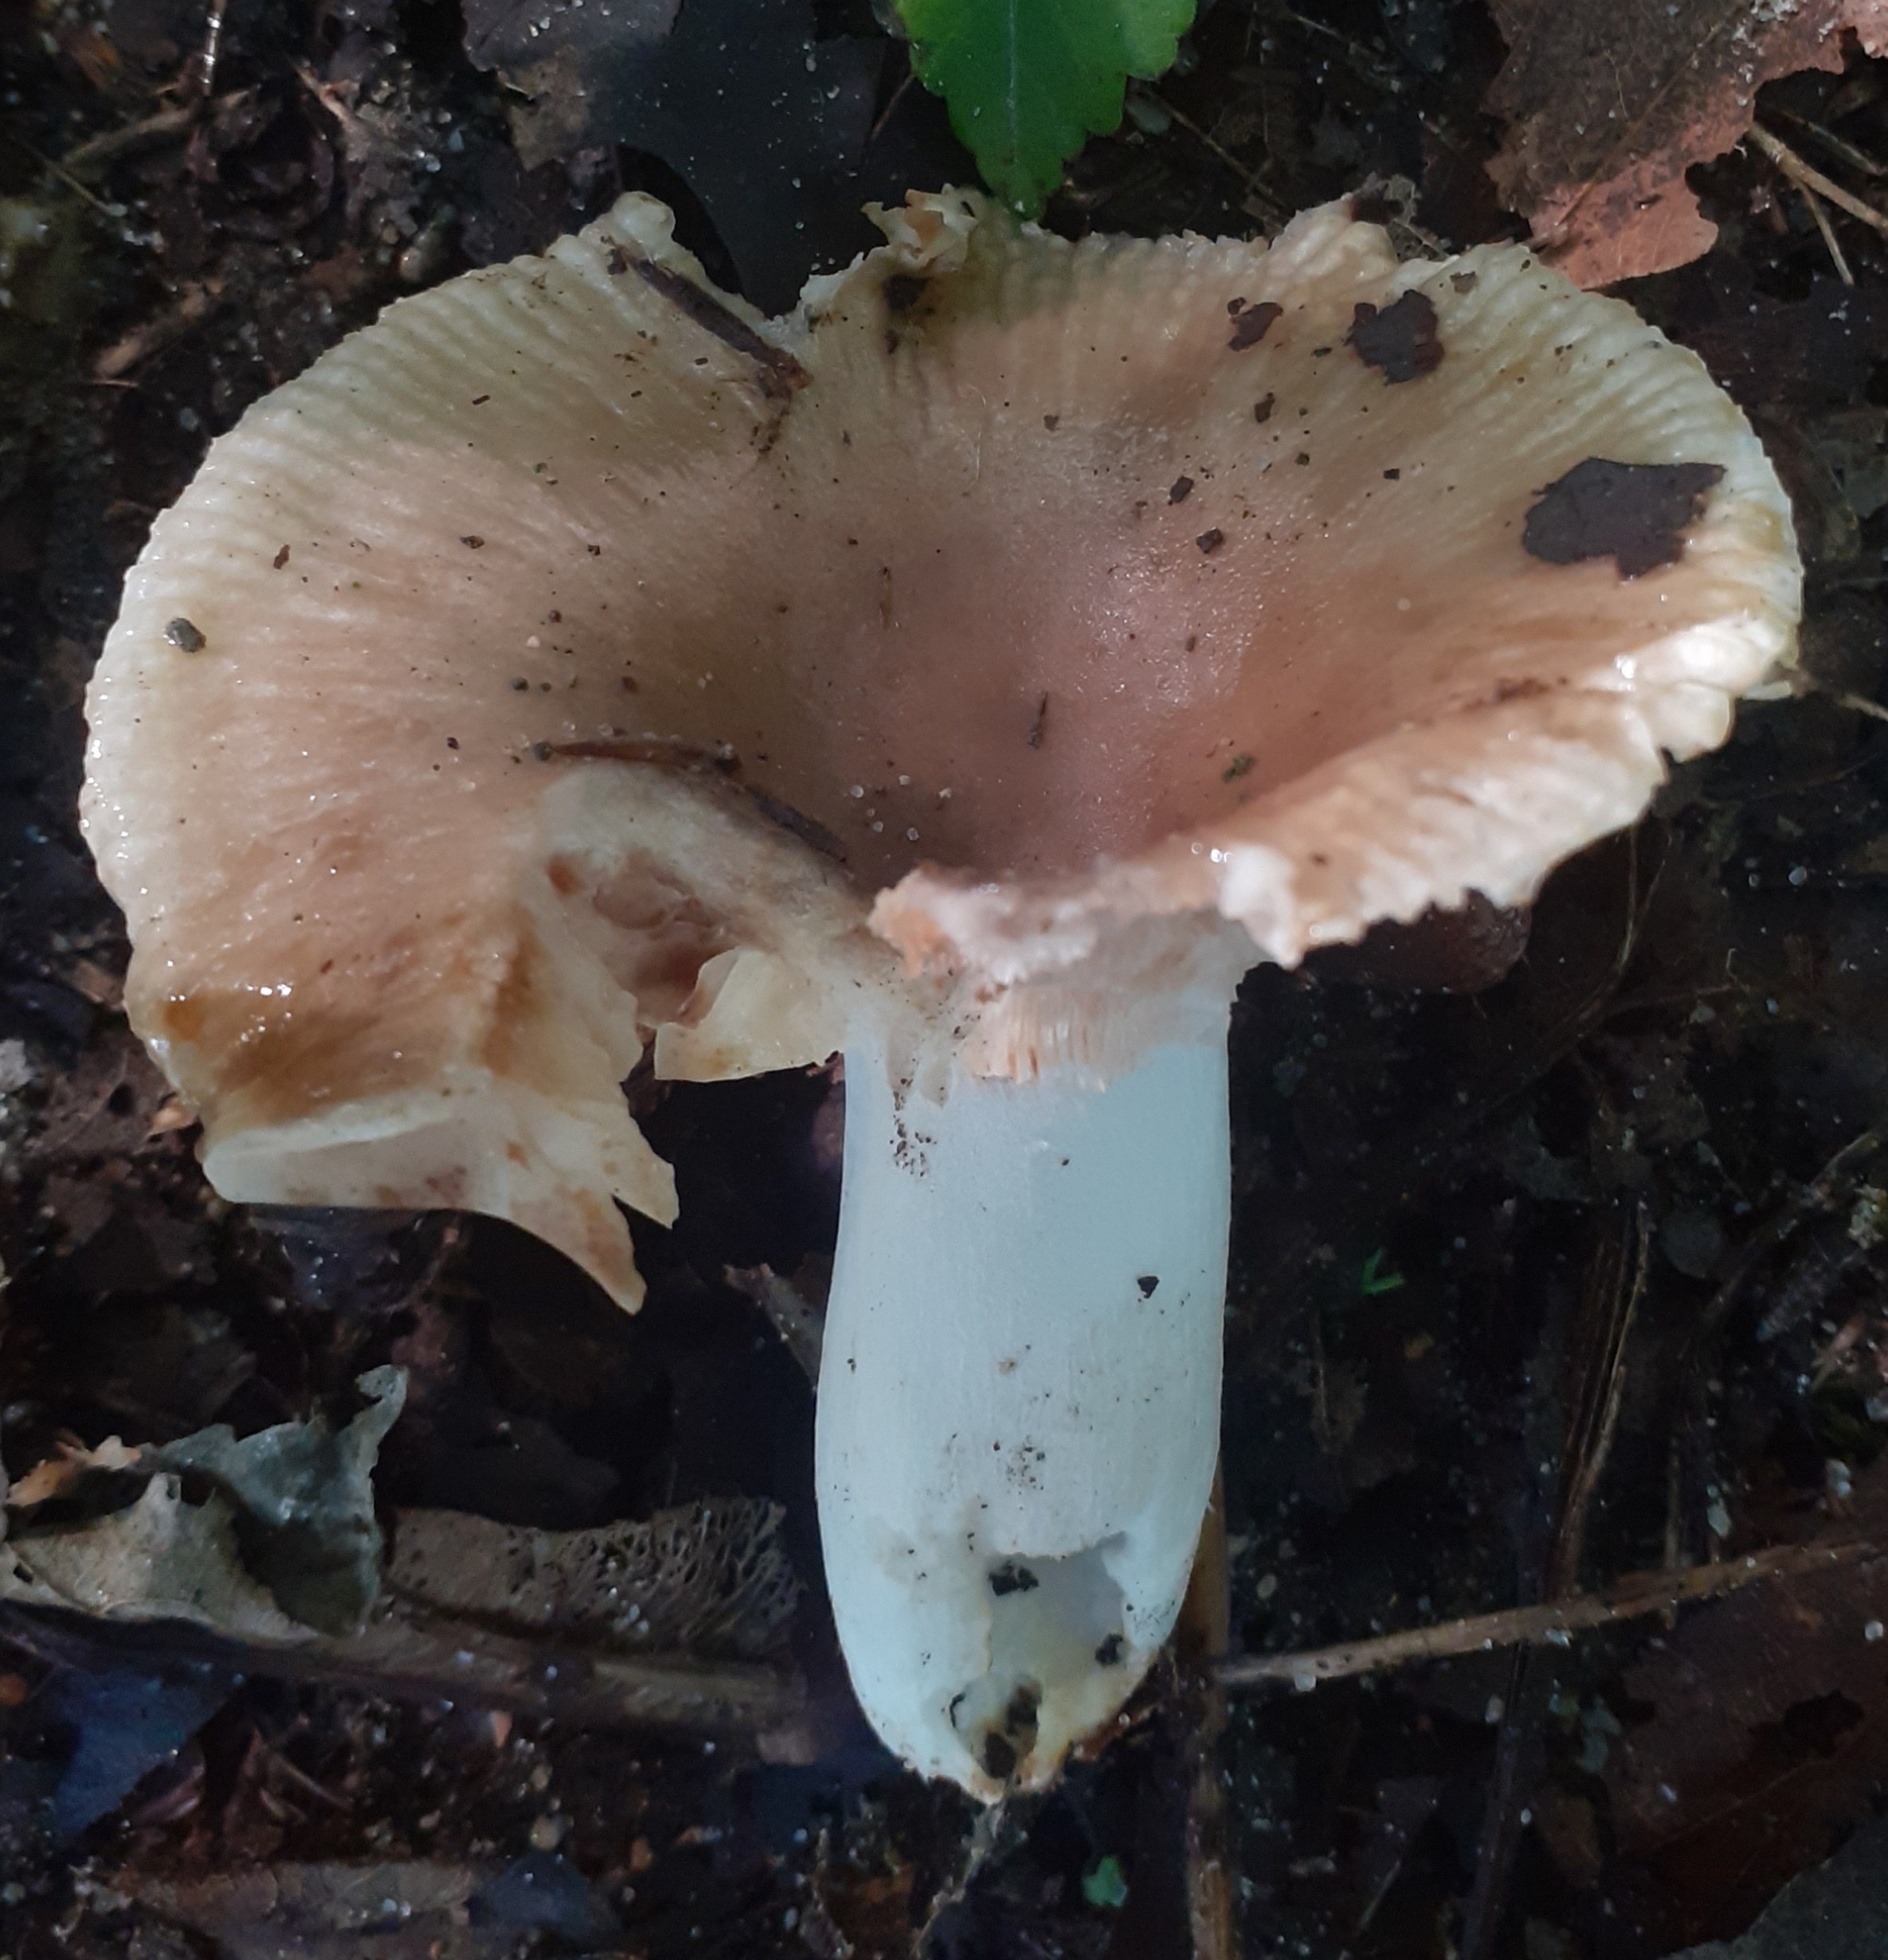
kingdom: Fungi
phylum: Basidiomycota
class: Agaricomycetes
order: Russulales
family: Russulaceae
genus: Russula
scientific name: Russula amoenolens
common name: skarp kam-skørhat
